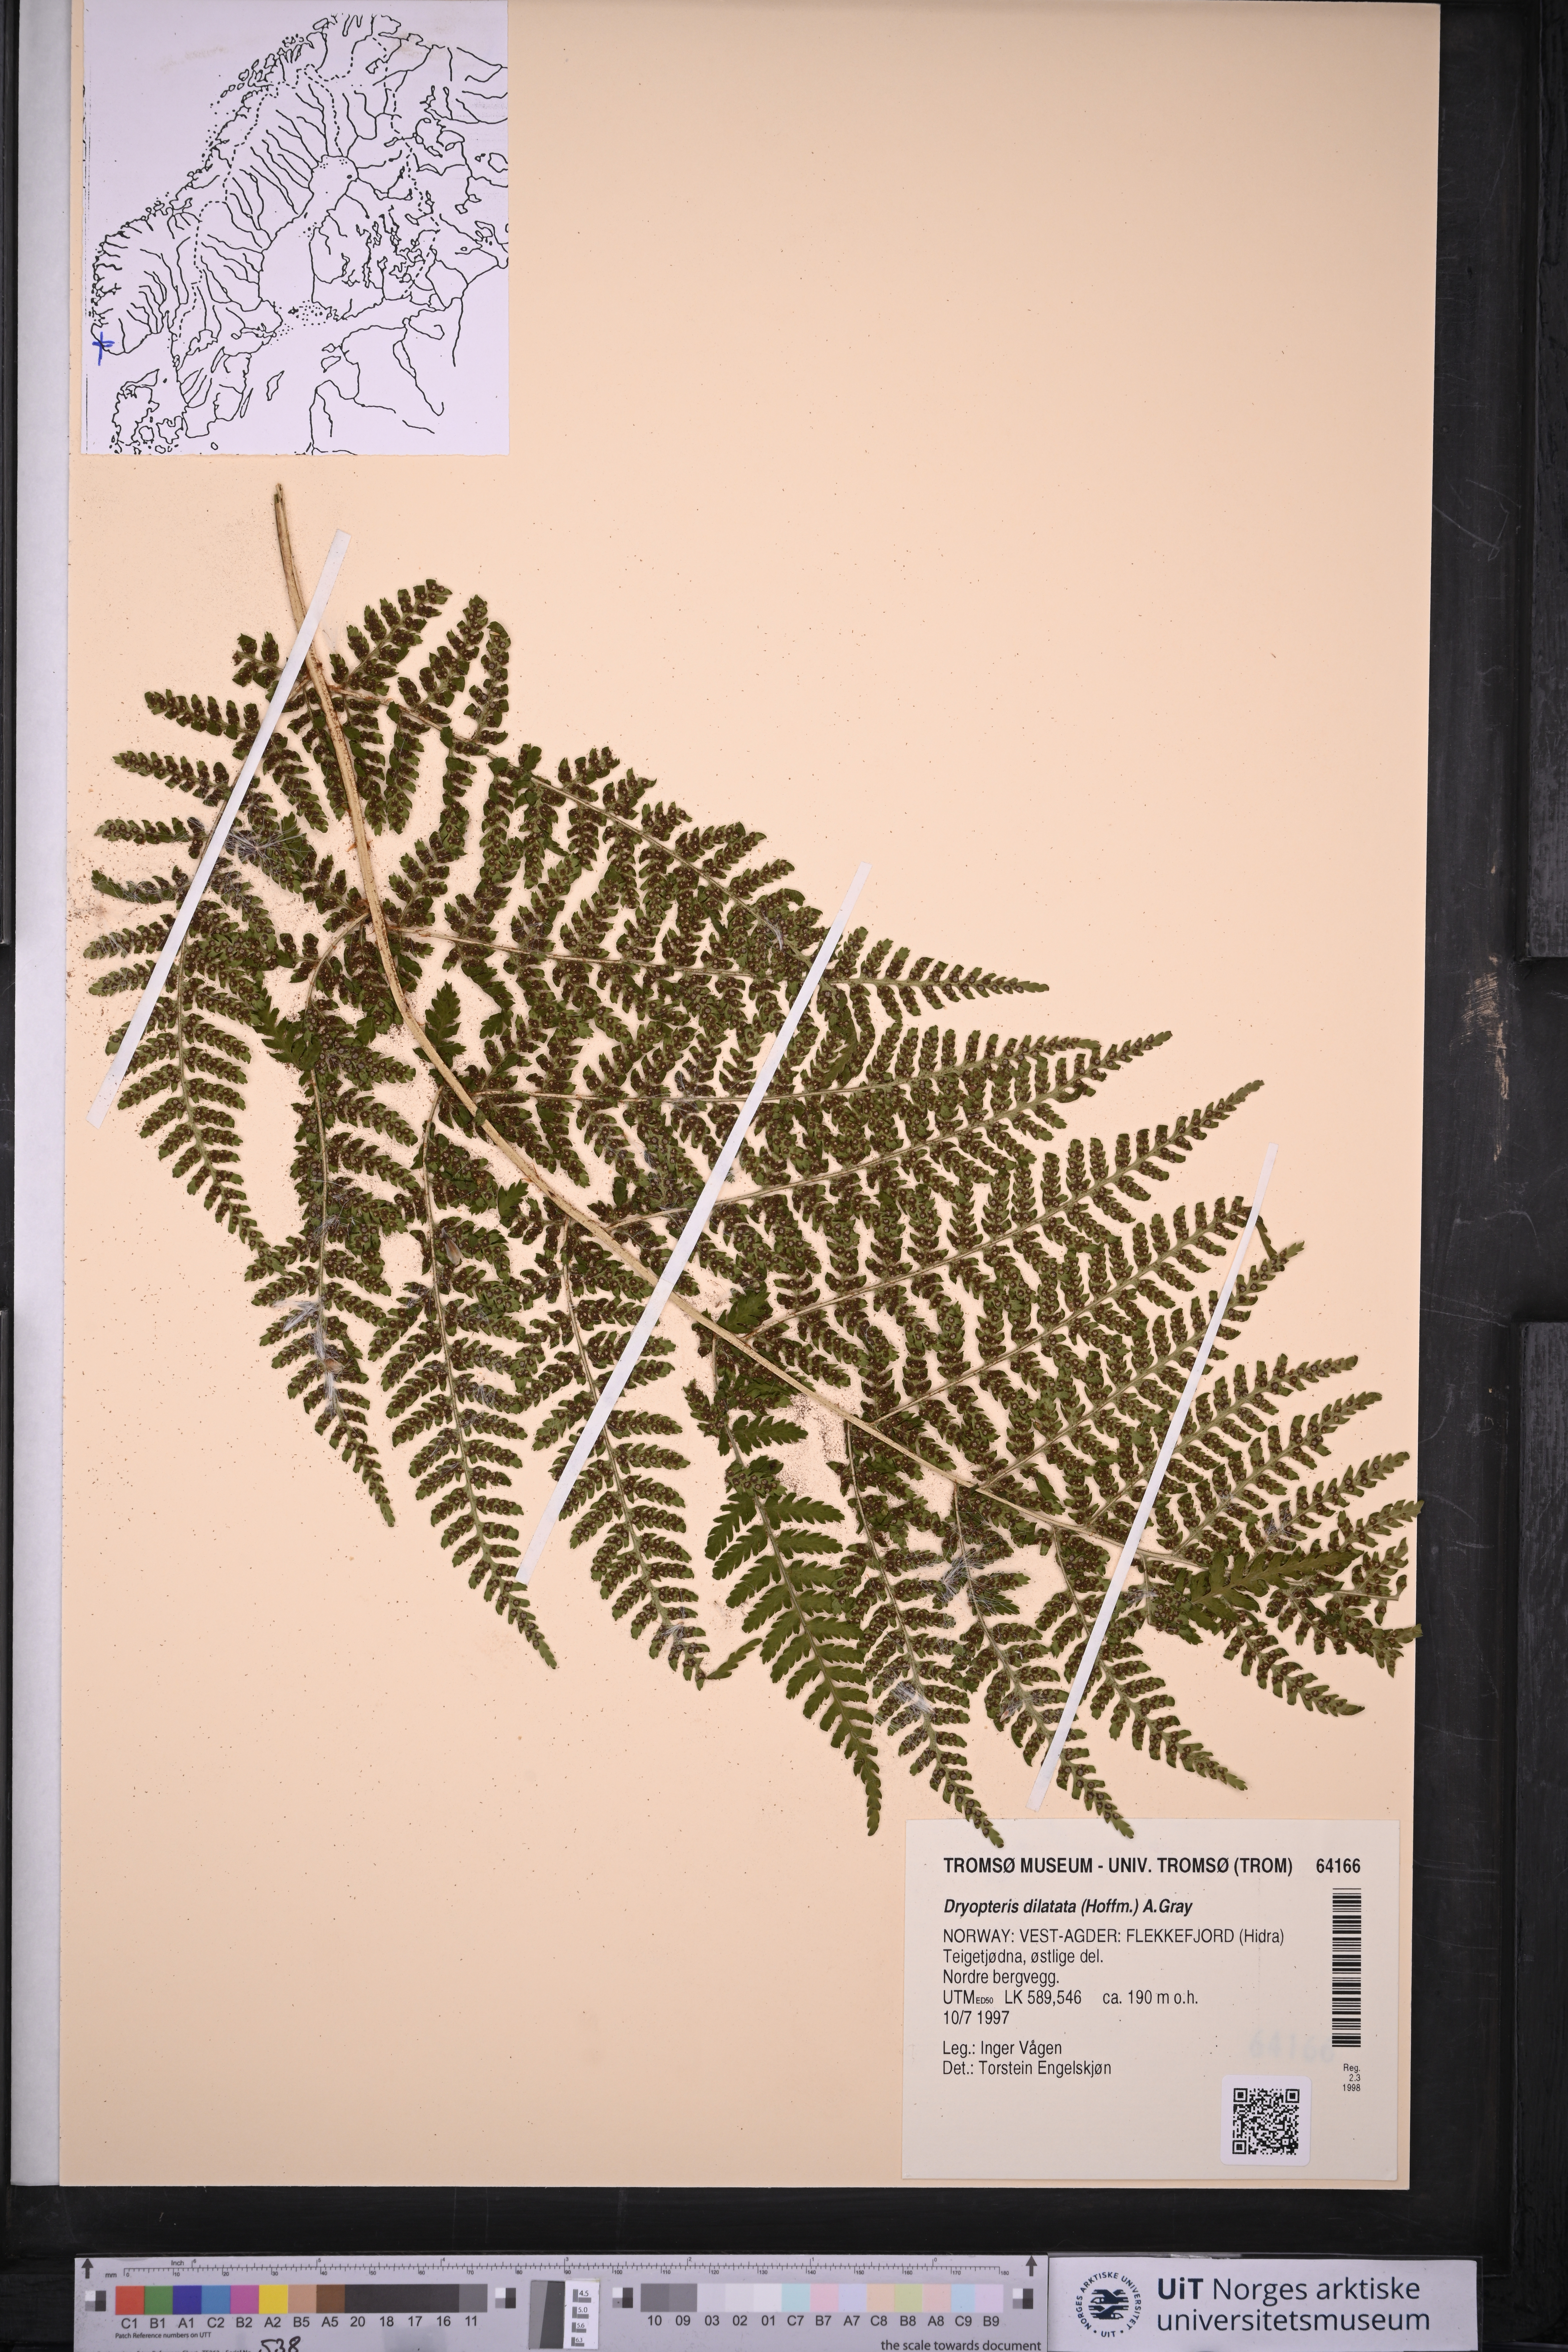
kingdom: Plantae
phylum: Tracheophyta
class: Polypodiopsida
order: Polypodiales
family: Dryopteridaceae
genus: Dryopteris
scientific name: Dryopteris dilatata
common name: Broad buckler-fern
